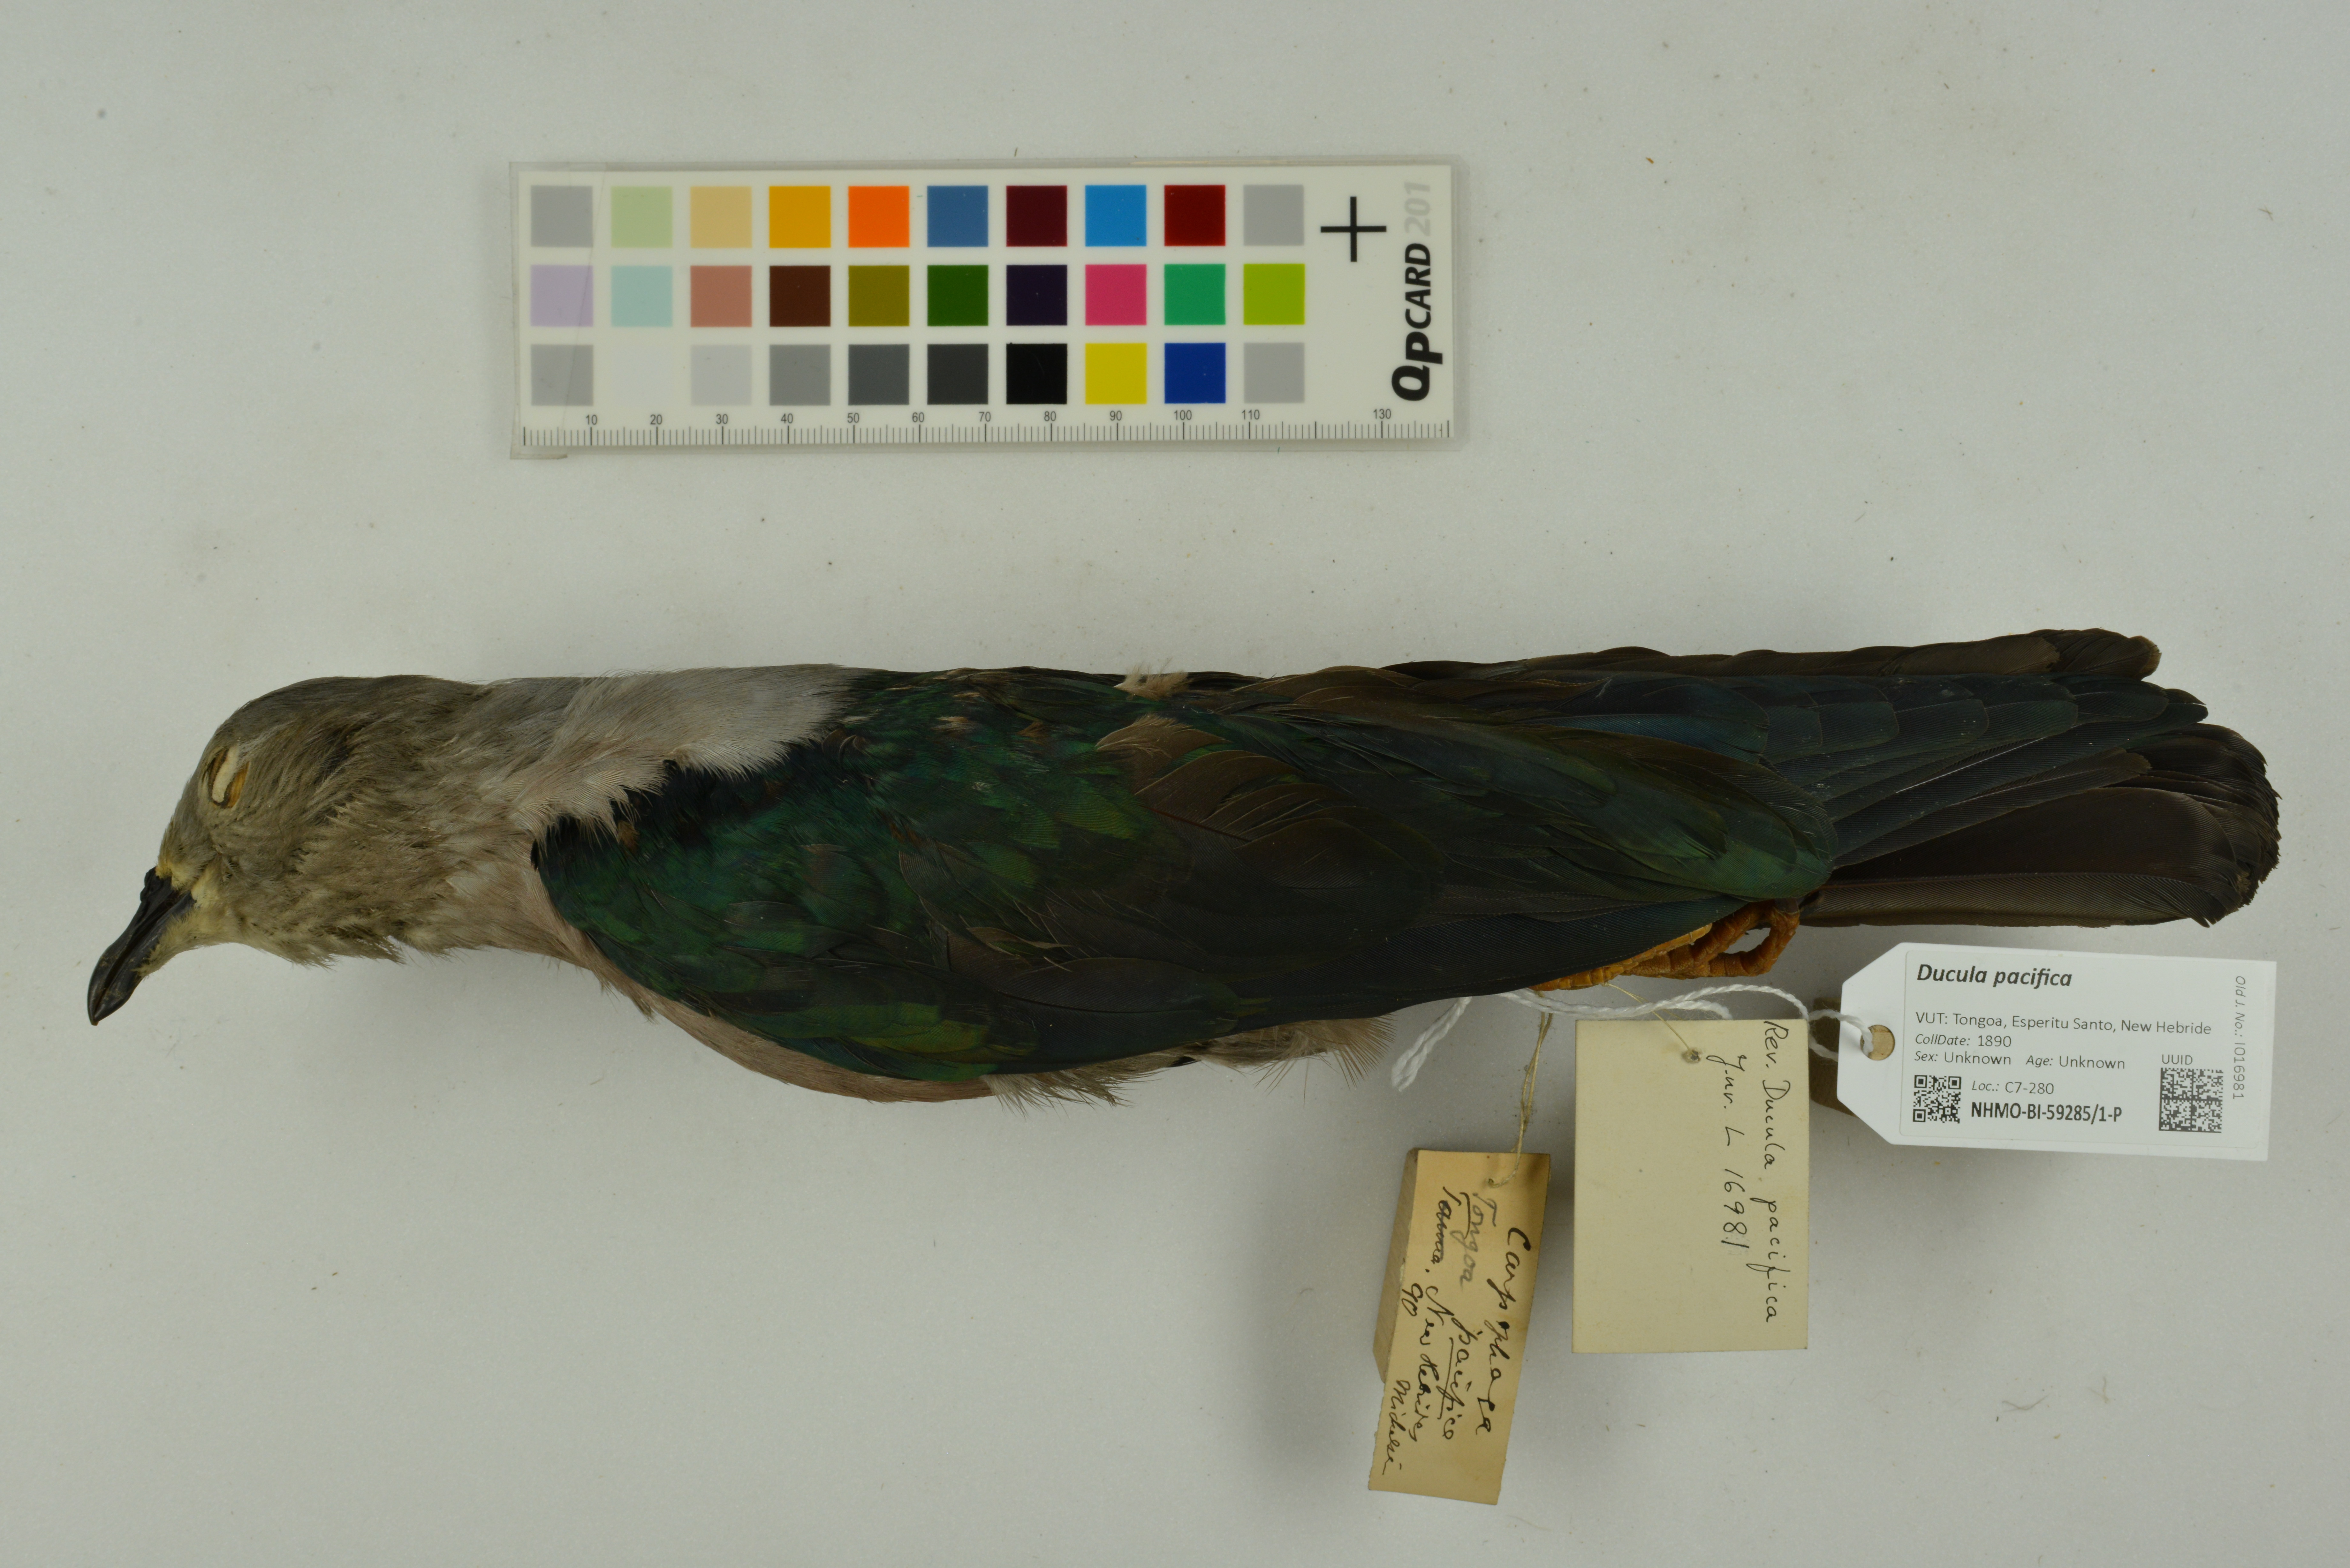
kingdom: Animalia
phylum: Chordata
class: Aves
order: Columbiformes
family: Columbidae
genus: Ducula
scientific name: Ducula pacifica
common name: Pacific imperial-pigeon
